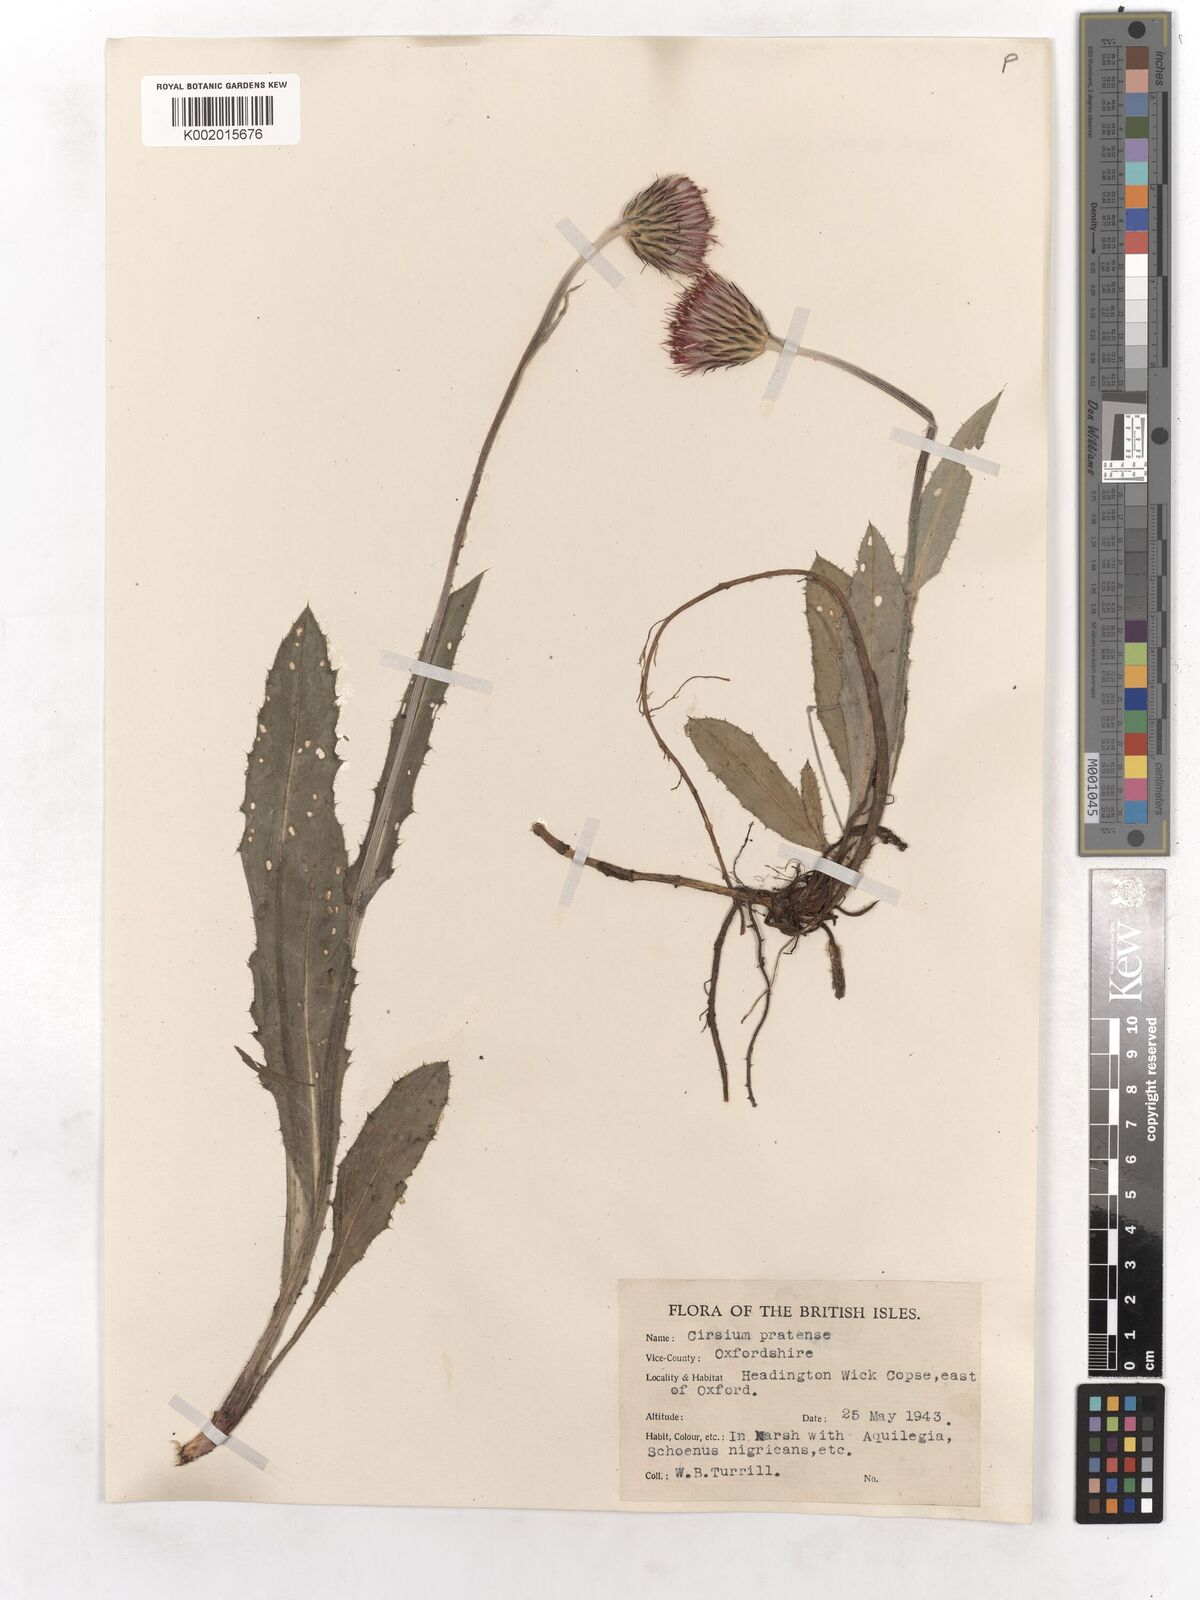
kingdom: Plantae
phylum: Tracheophyta
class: Magnoliopsida
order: Asterales
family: Asteraceae
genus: Cirsium
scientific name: Cirsium dissectum
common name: Meadow thistle
